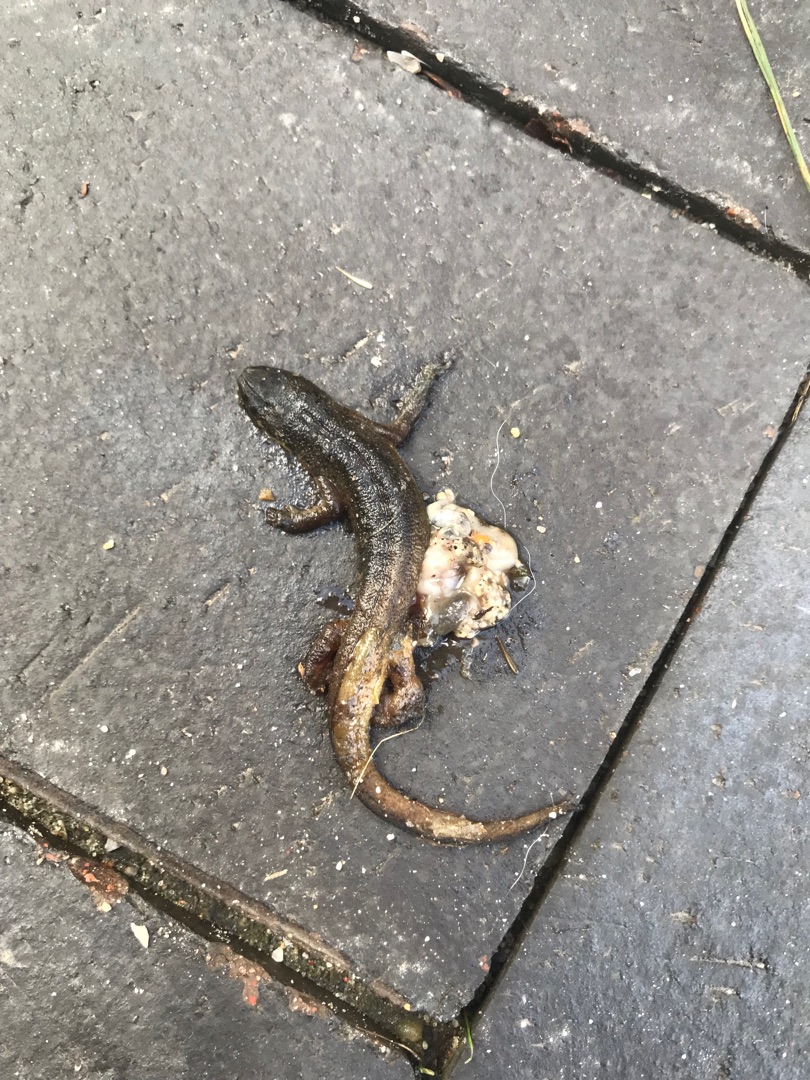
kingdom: Animalia
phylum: Chordata
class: Amphibia
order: Caudata
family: Salamandridae
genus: Lissotriton
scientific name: Lissotriton vulgaris
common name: Lille vandsalamander
